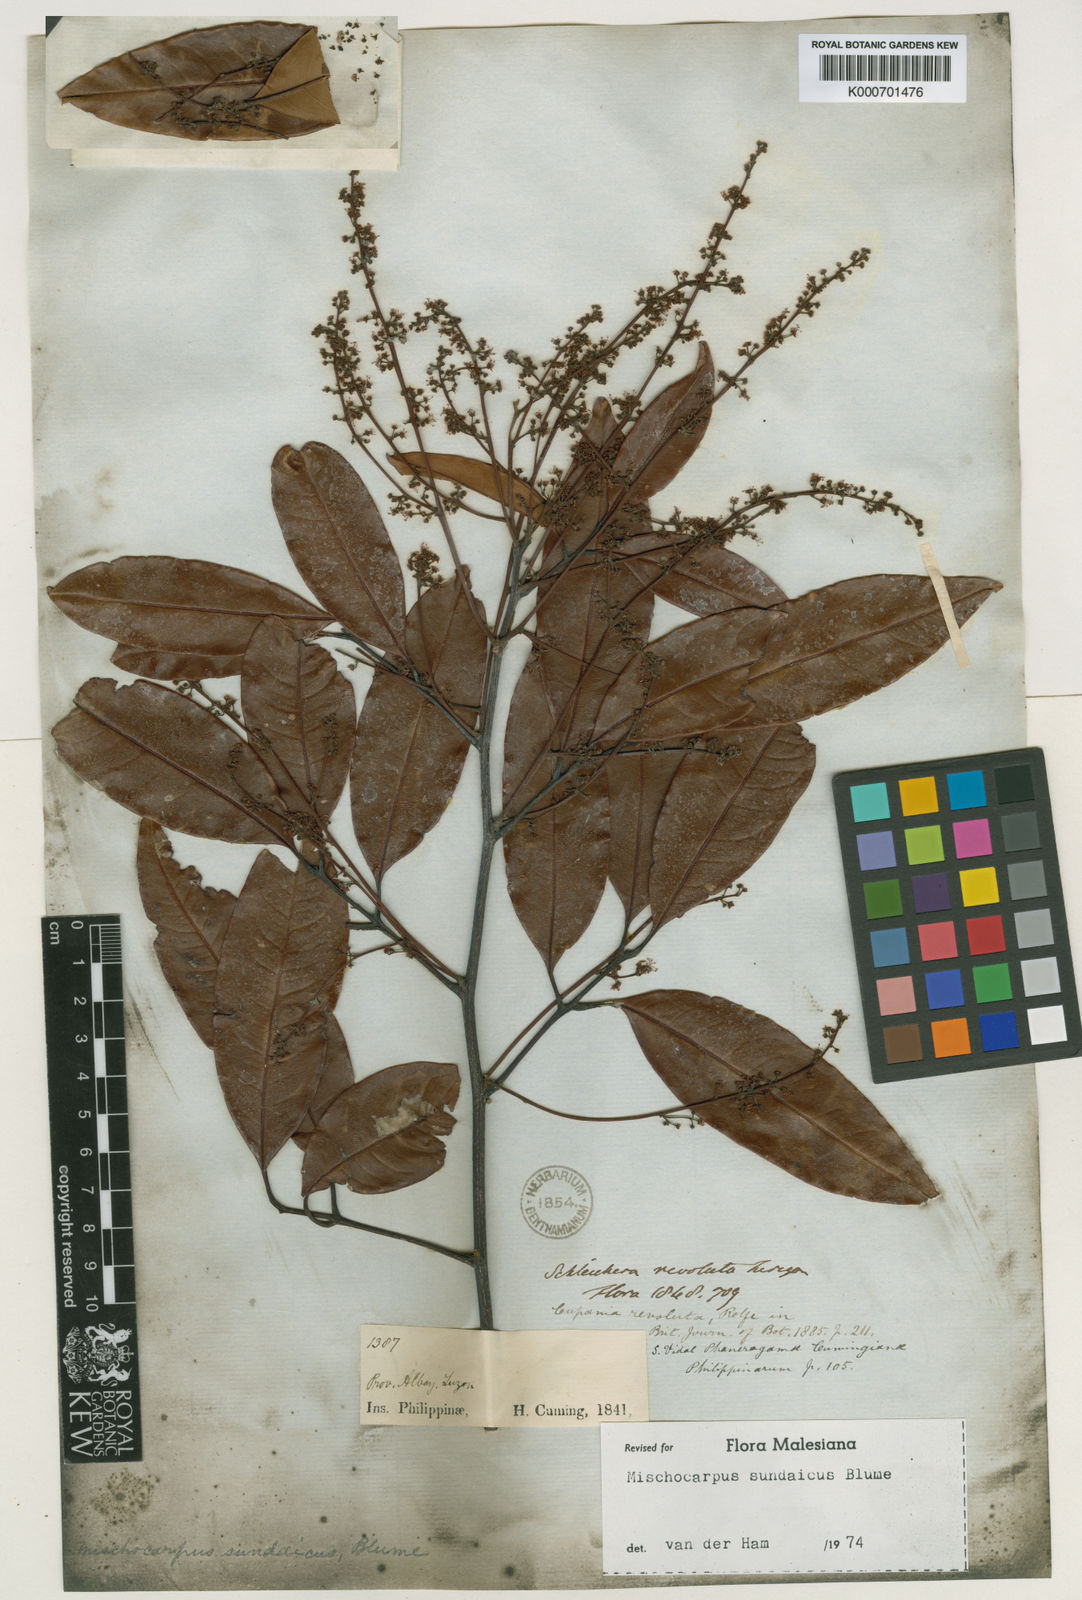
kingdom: Plantae
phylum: Tracheophyta
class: Magnoliopsida
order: Sapindales
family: Sapindaceae
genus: Mischocarpus
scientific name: Mischocarpus sundaicus
